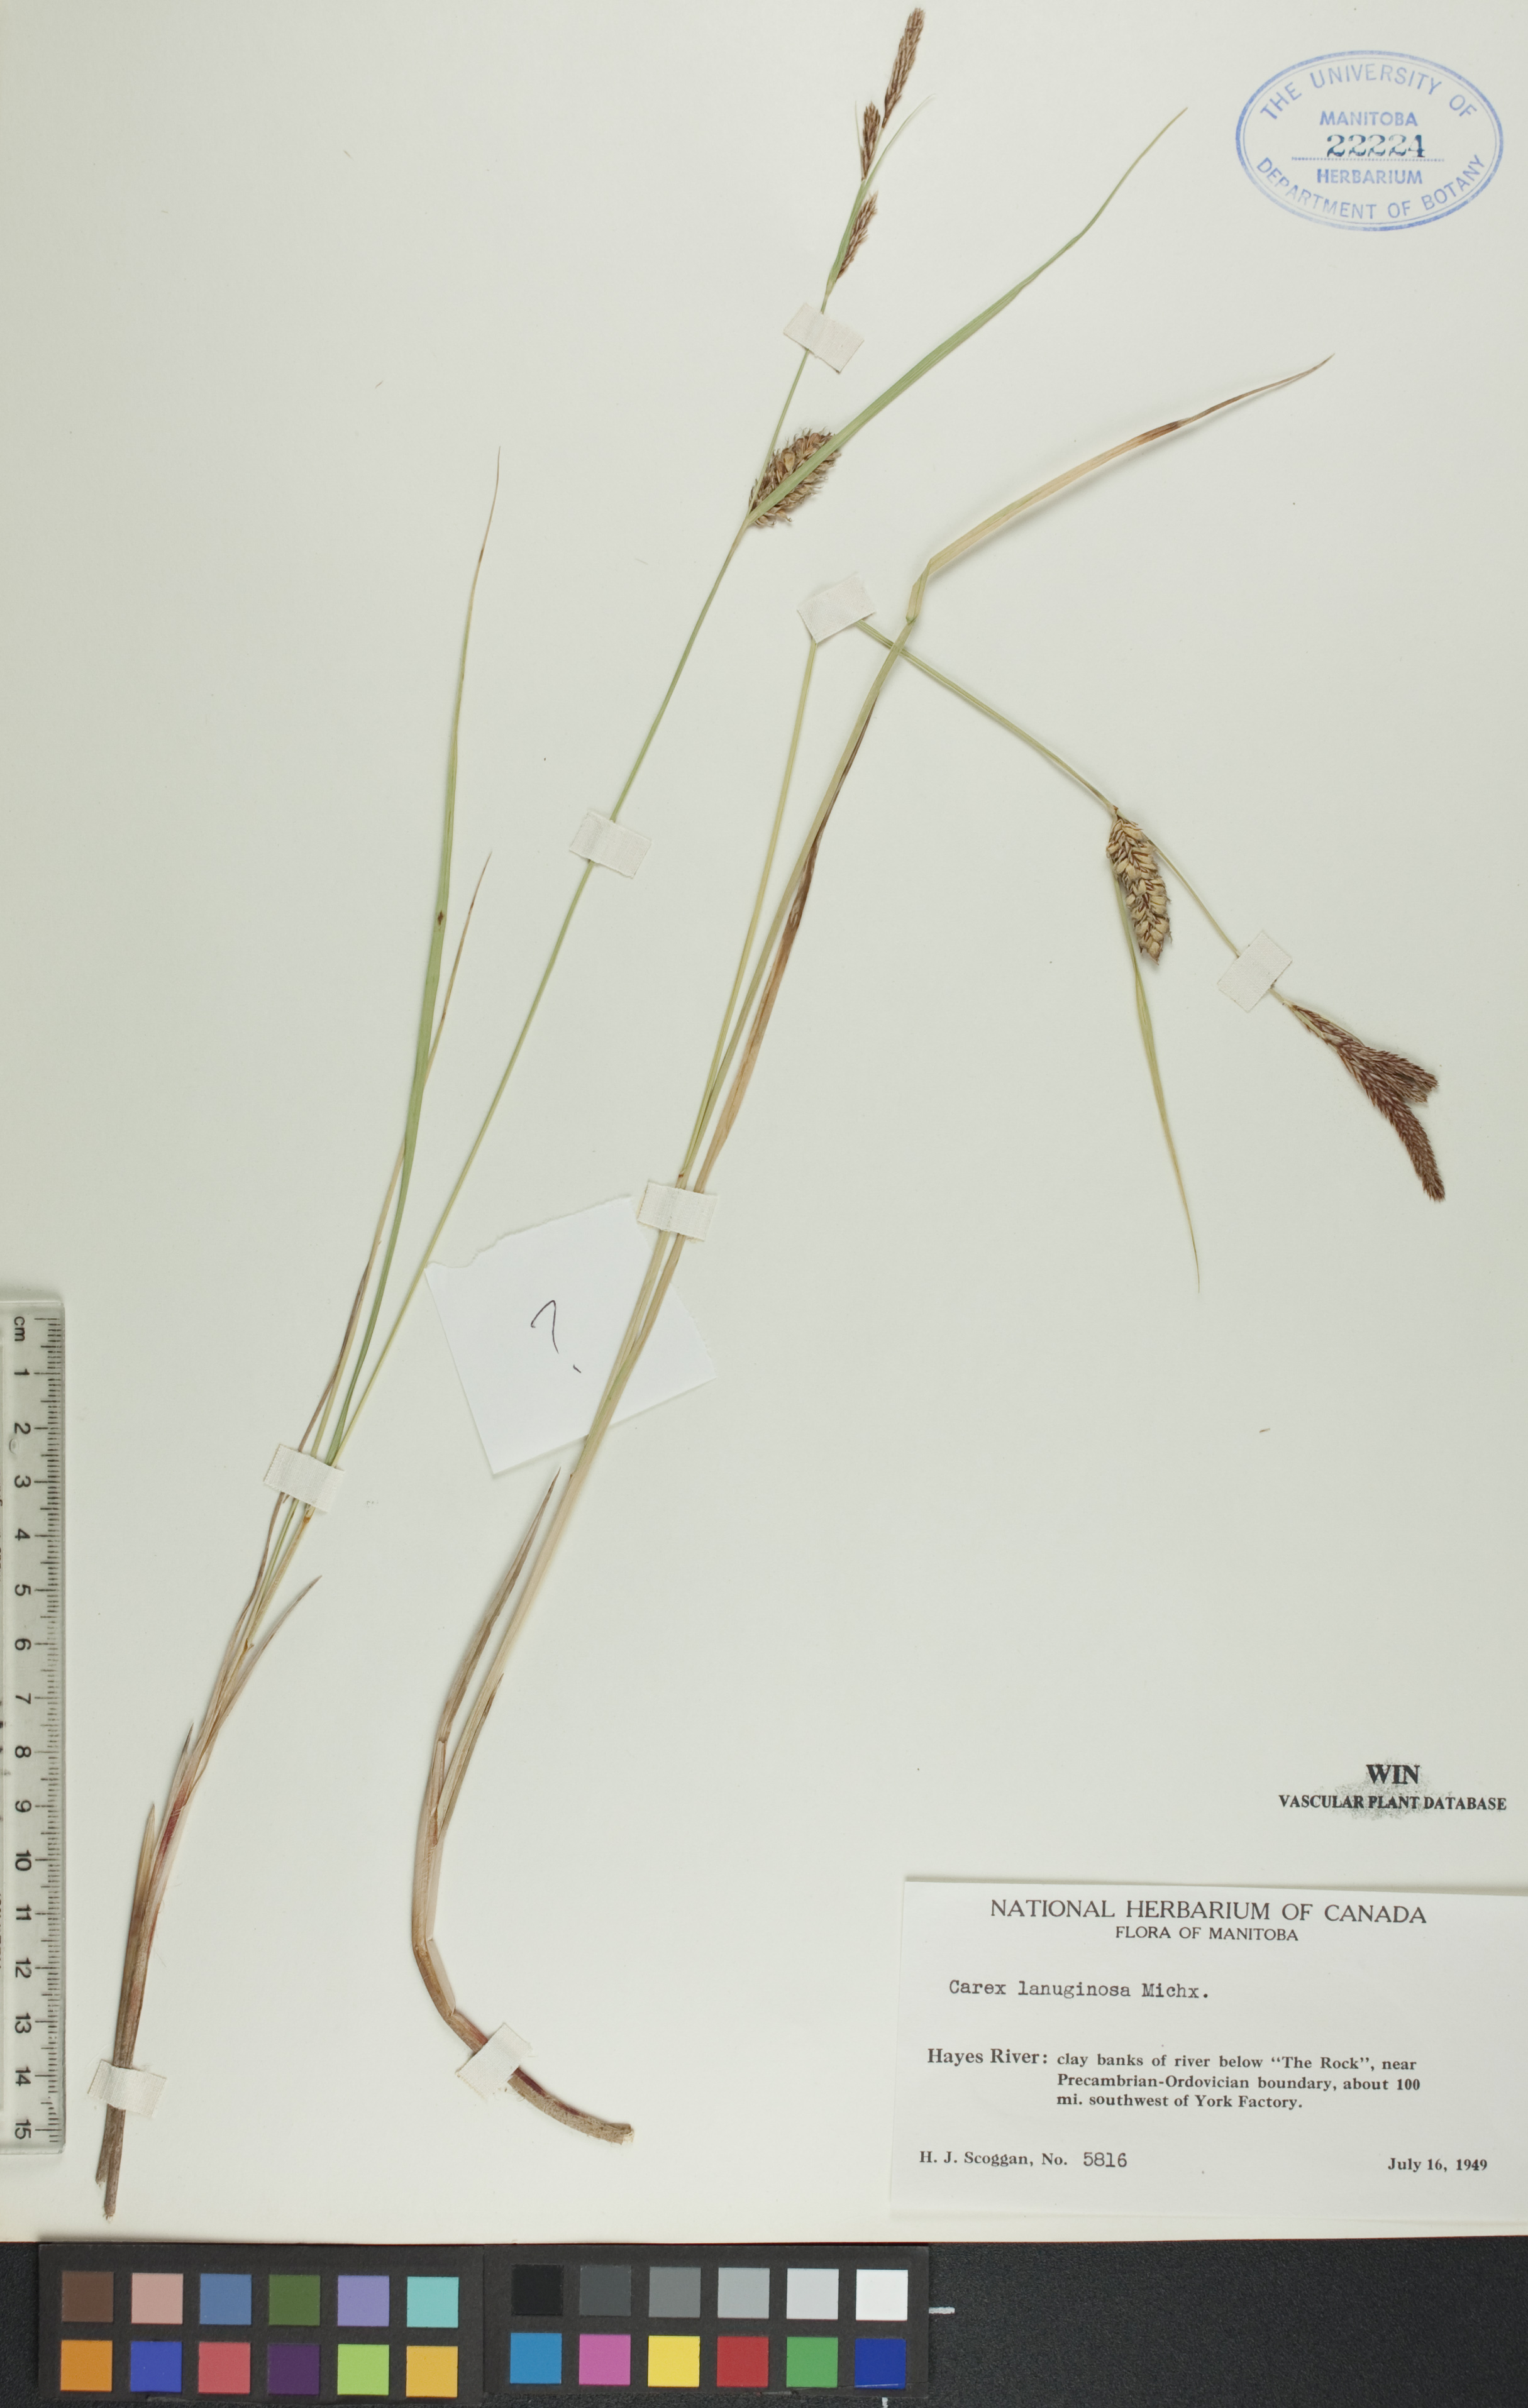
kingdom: Plantae
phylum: Tracheophyta
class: Liliopsida
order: Poales
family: Cyperaceae
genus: Carex
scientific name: Carex lasiocarpa
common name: Slender sedge
